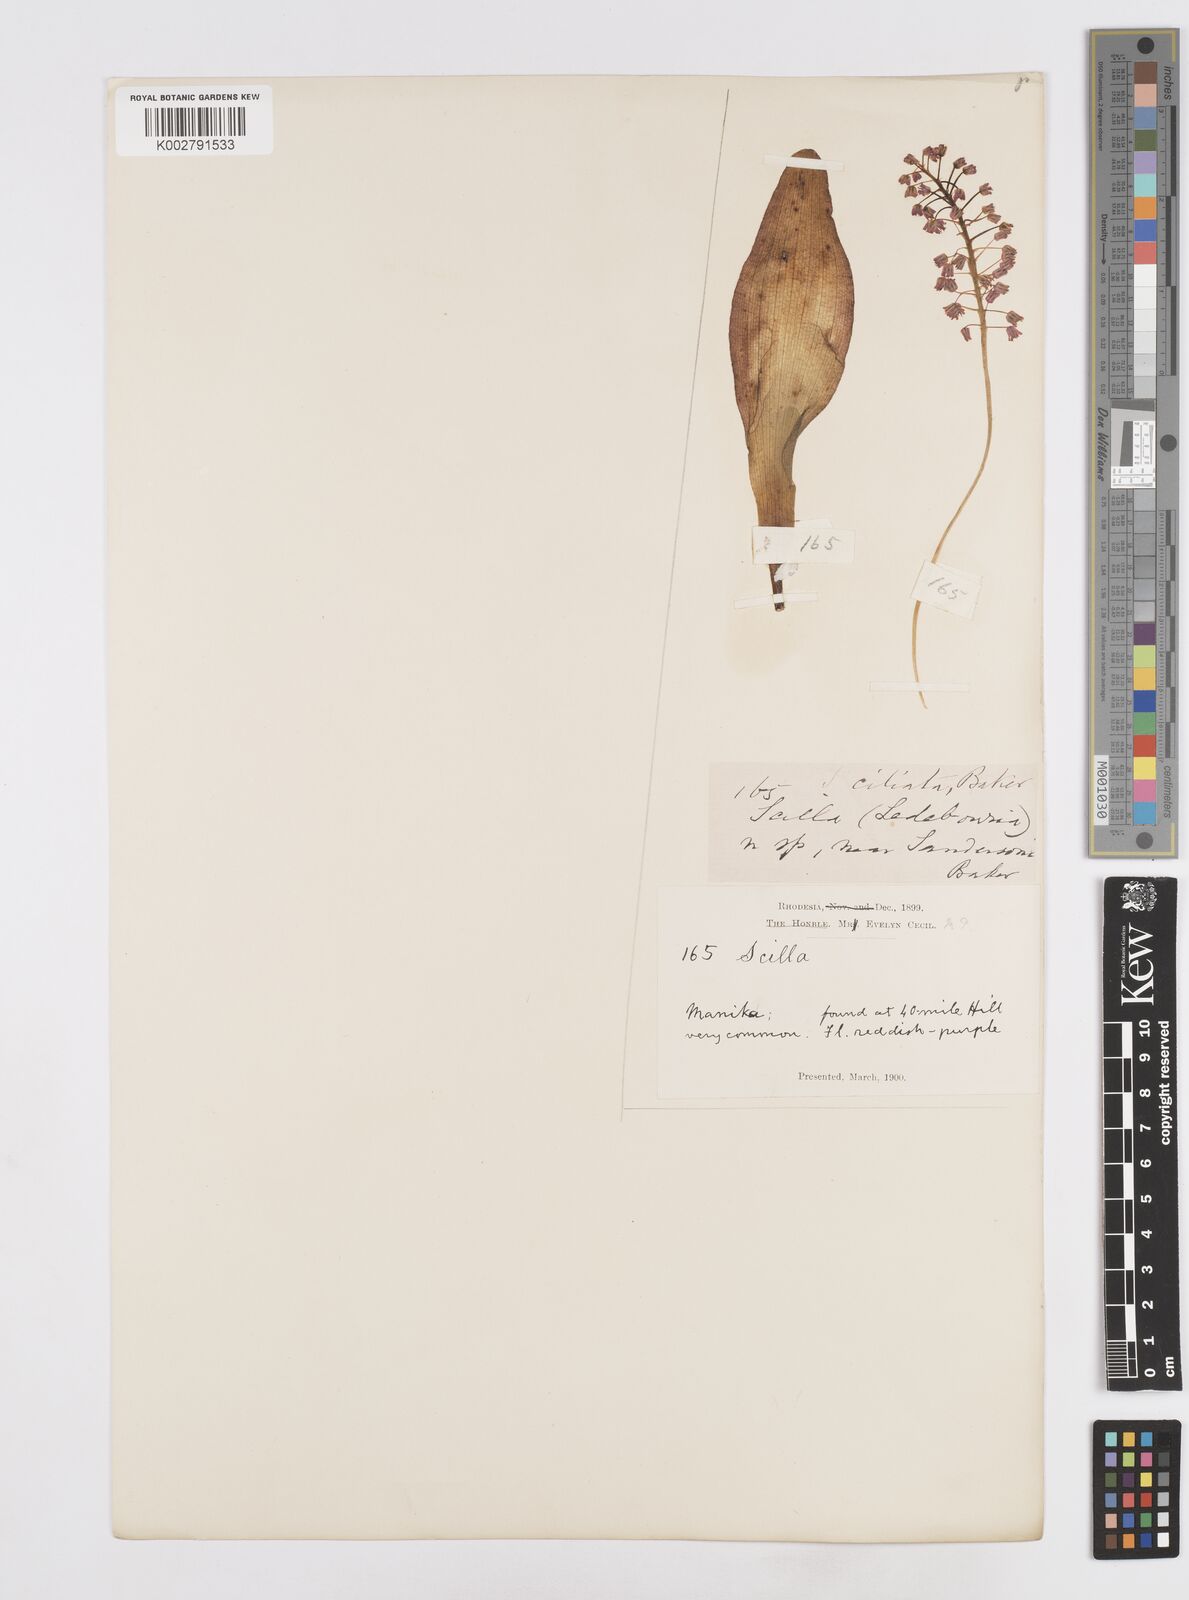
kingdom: Plantae
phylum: Tracheophyta
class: Liliopsida
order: Asparagales
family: Asparagaceae
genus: Scilla
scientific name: Scilla
